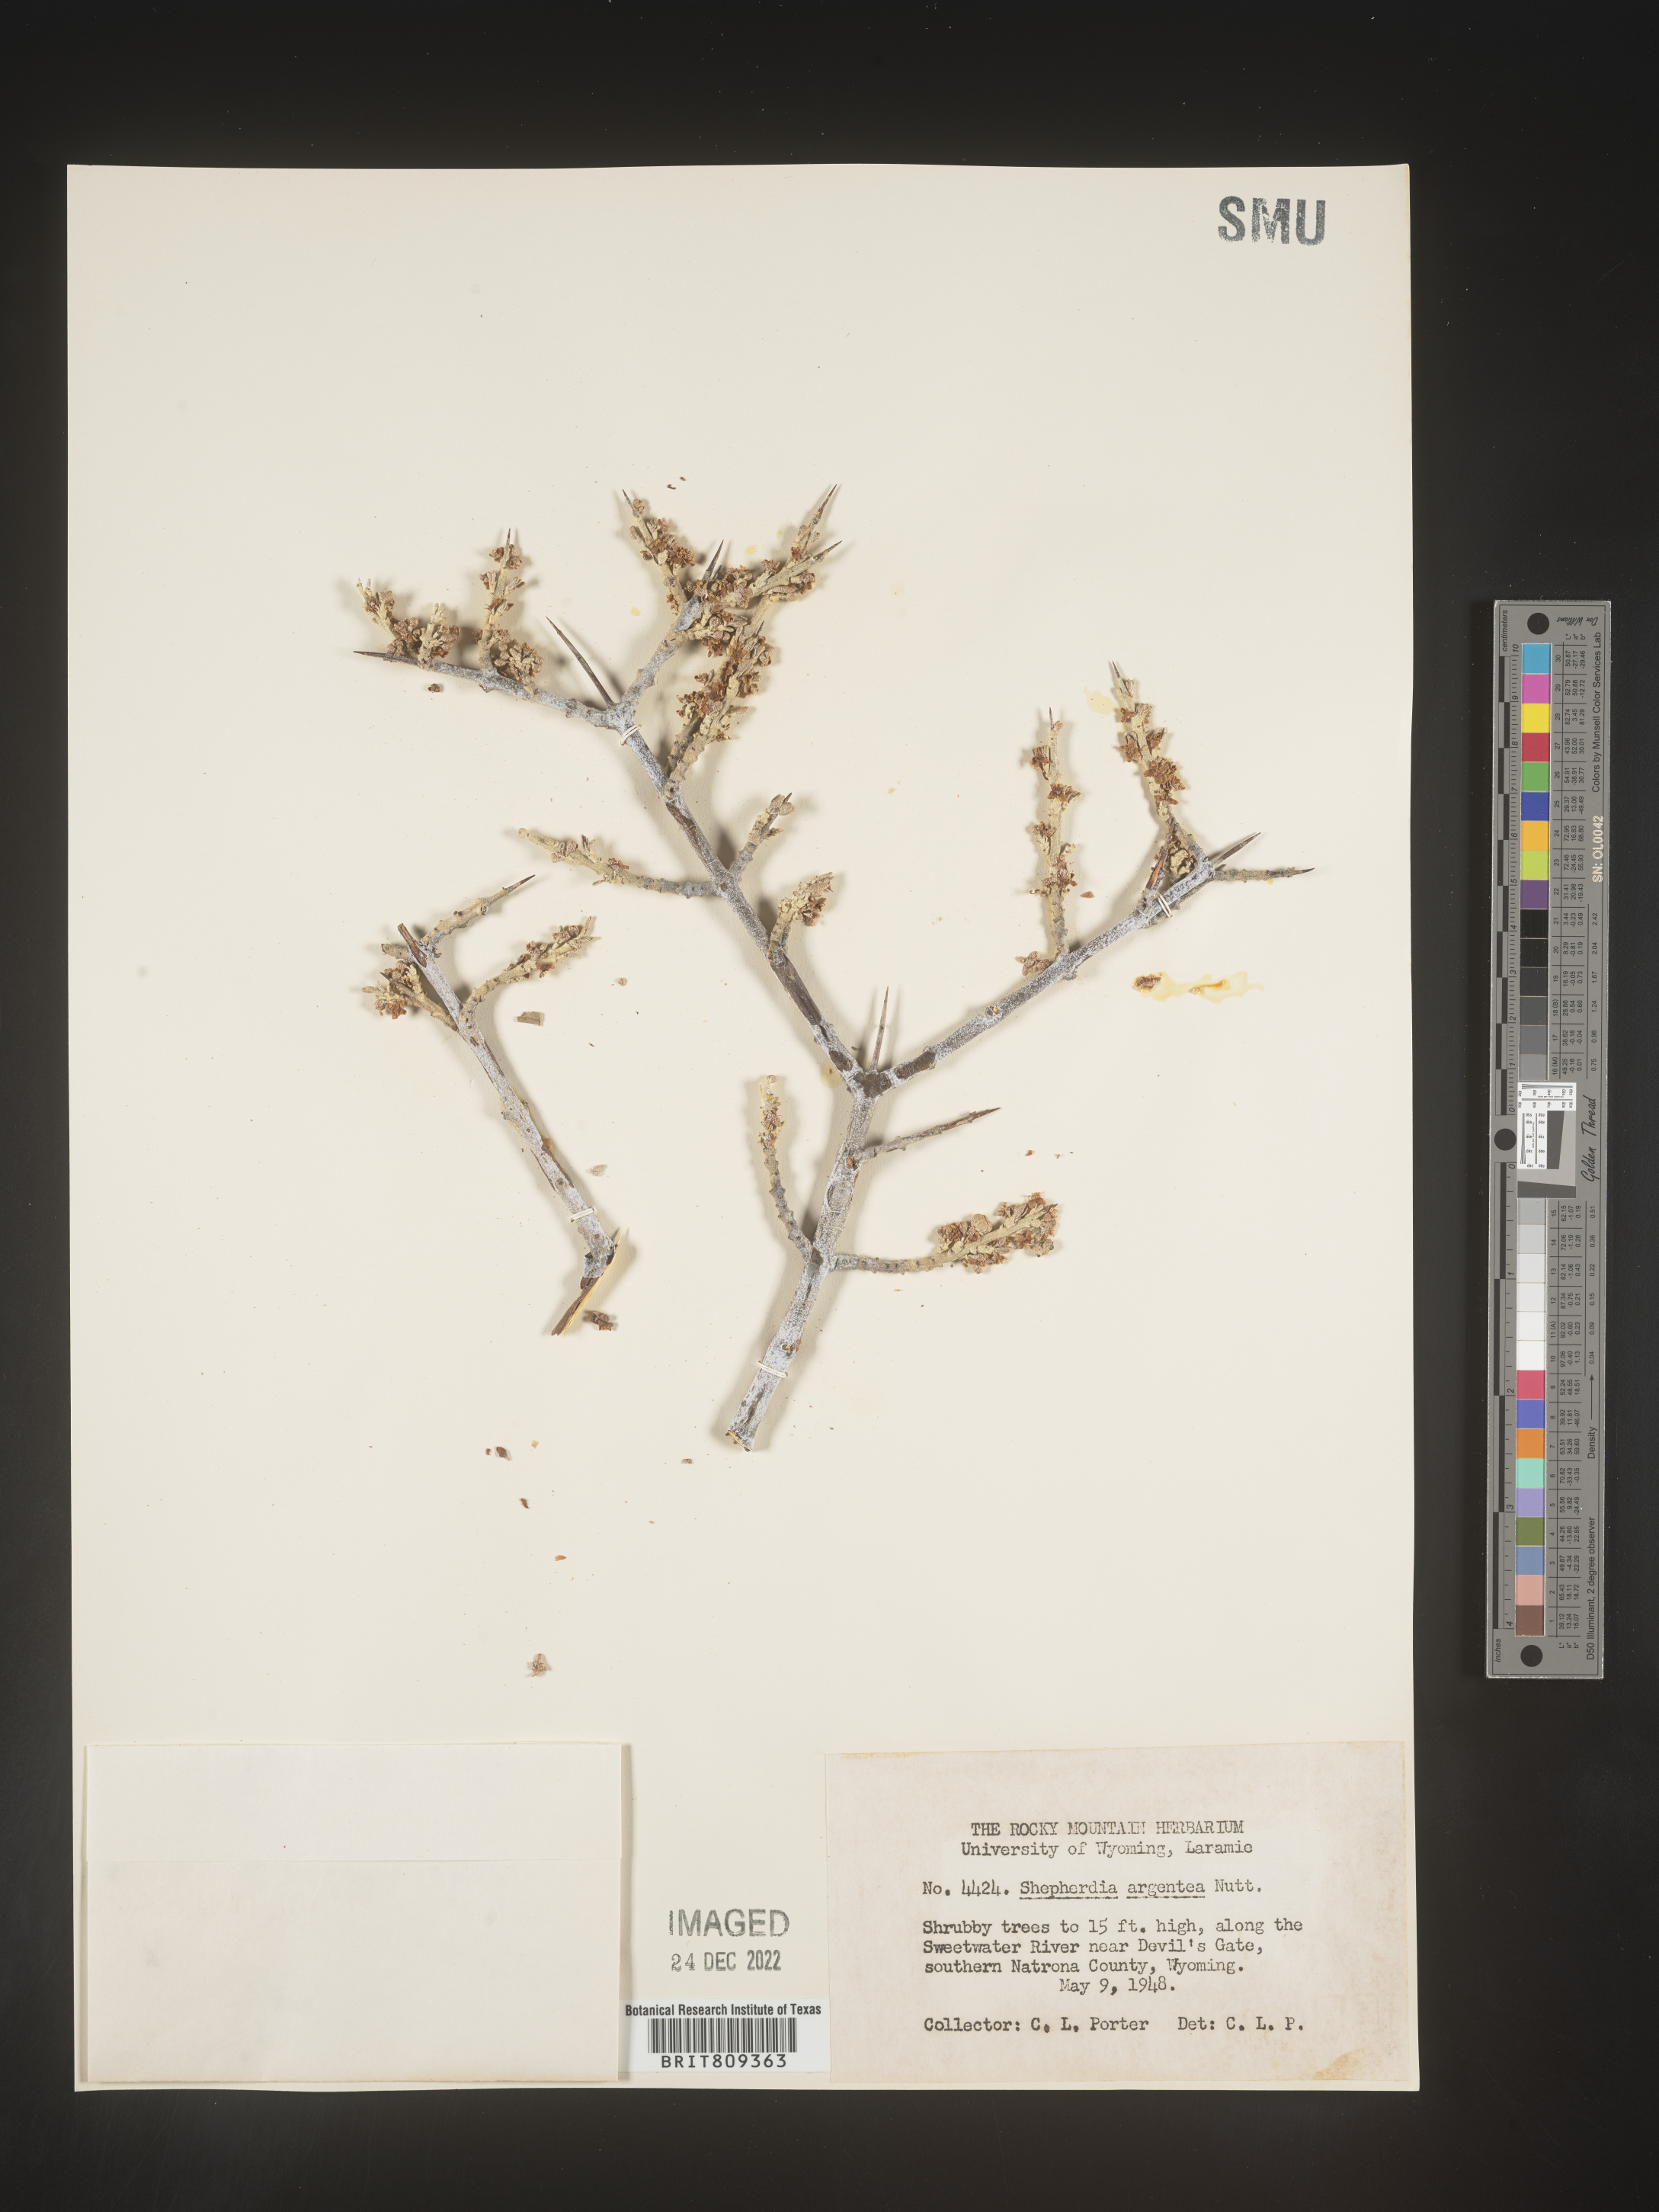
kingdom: Plantae
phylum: Tracheophyta
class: Magnoliopsida
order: Rosales
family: Elaeagnaceae
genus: Shepherdia
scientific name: Shepherdia argentea
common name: Silver buffaloberry
